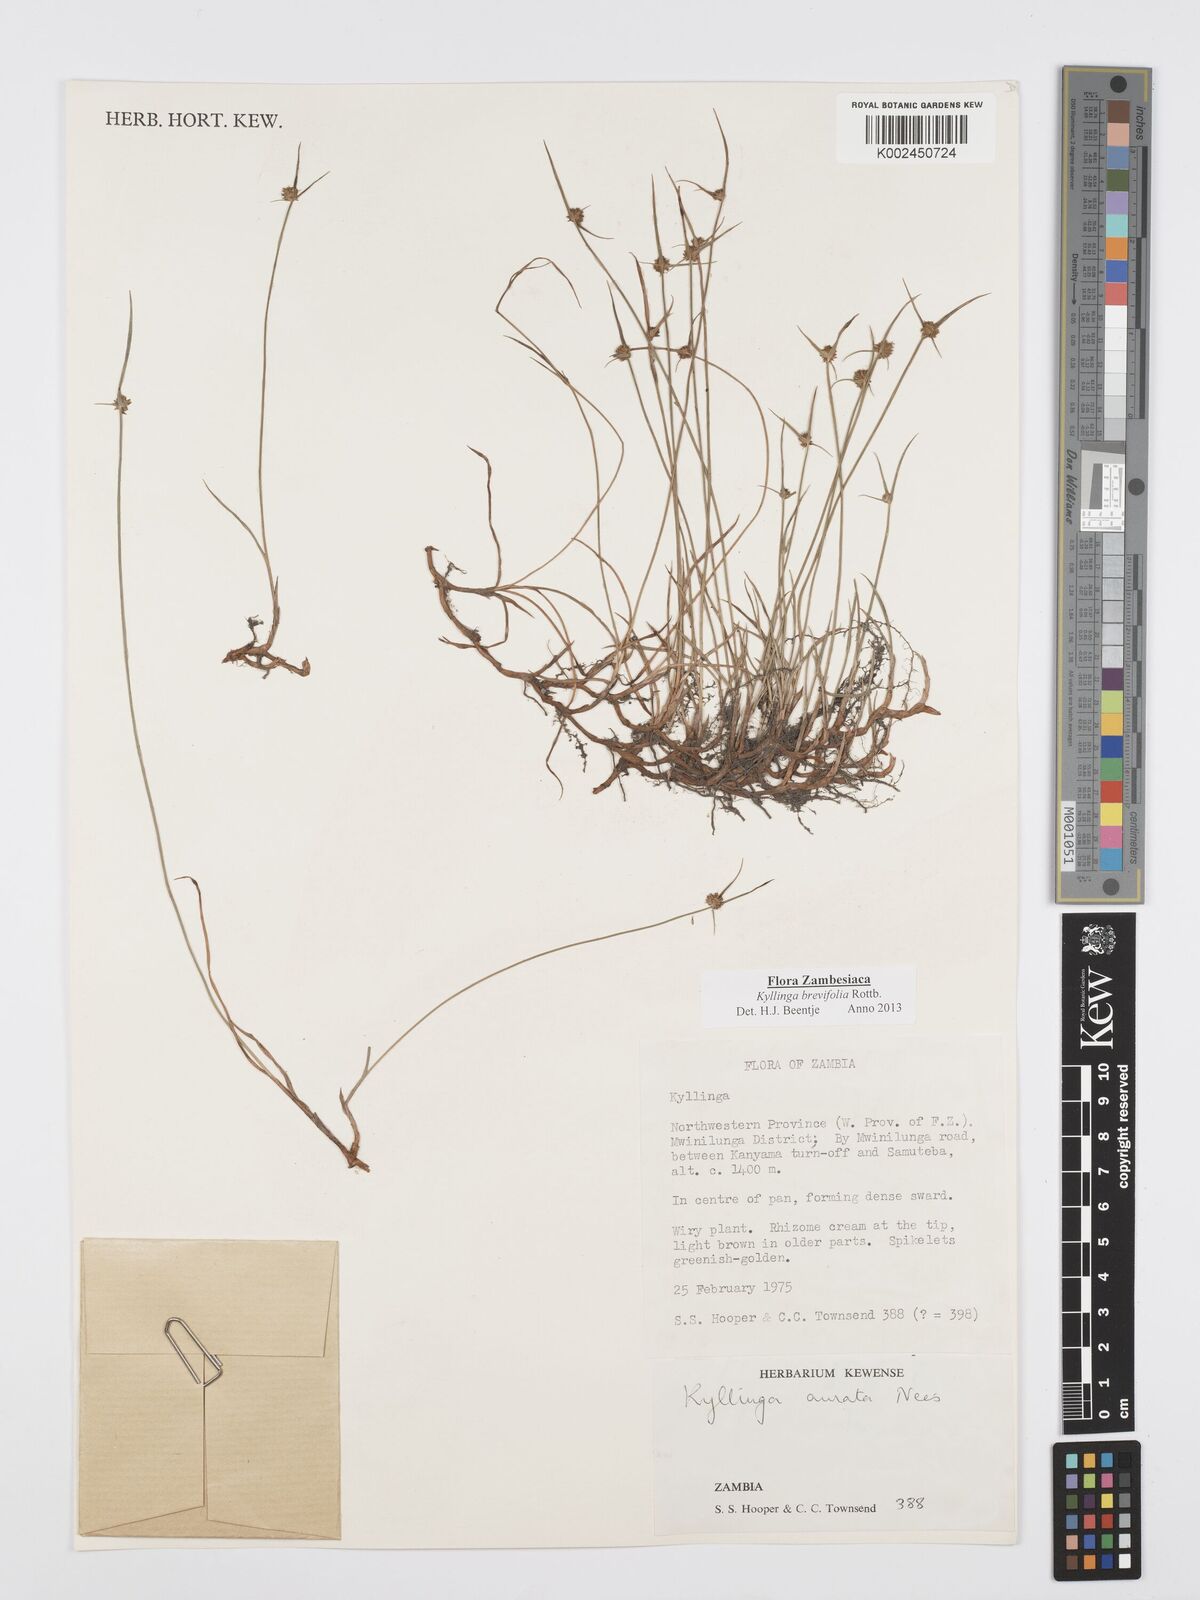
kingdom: Plantae
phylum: Tracheophyta
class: Liliopsida
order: Poales
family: Cyperaceae
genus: Cyperus
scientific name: Cyperus brevifolius
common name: Globe kyllinga
